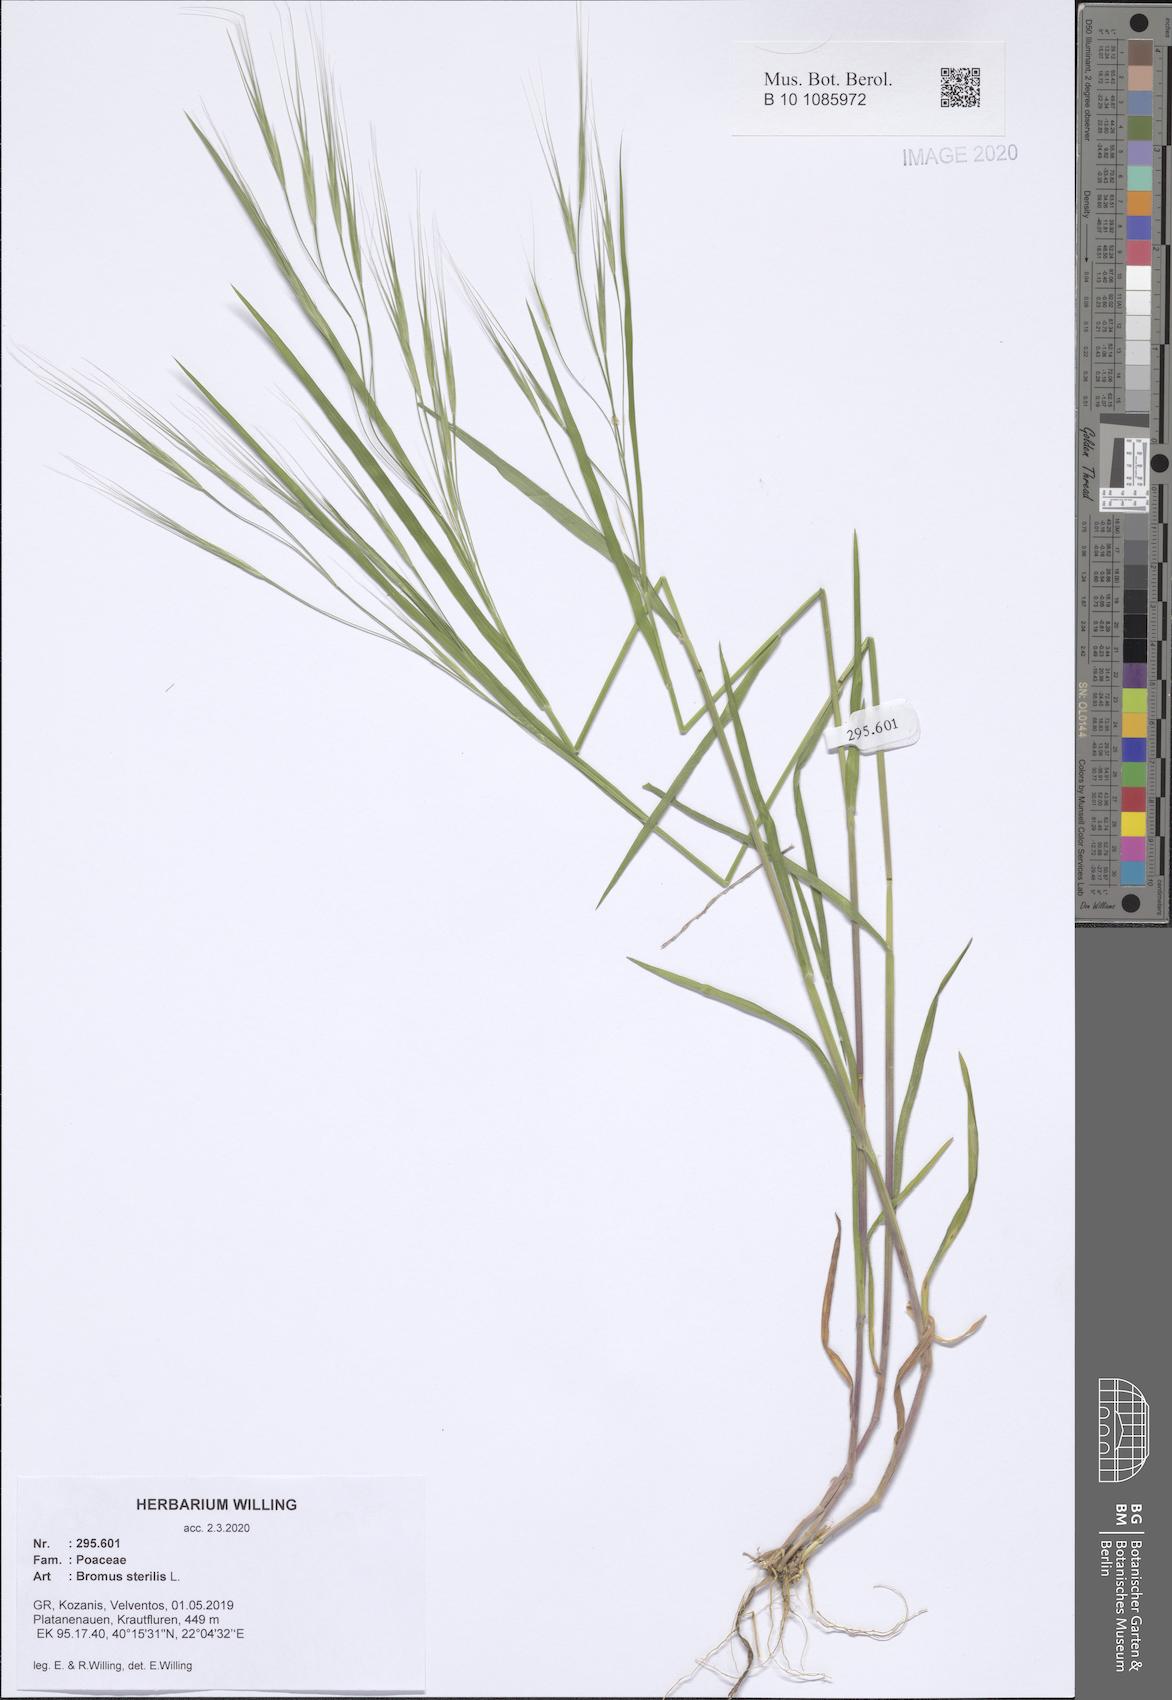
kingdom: Plantae
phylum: Tracheophyta
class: Liliopsida
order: Poales
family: Poaceae
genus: Bromus
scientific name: Bromus sterilis
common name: Poverty brome
